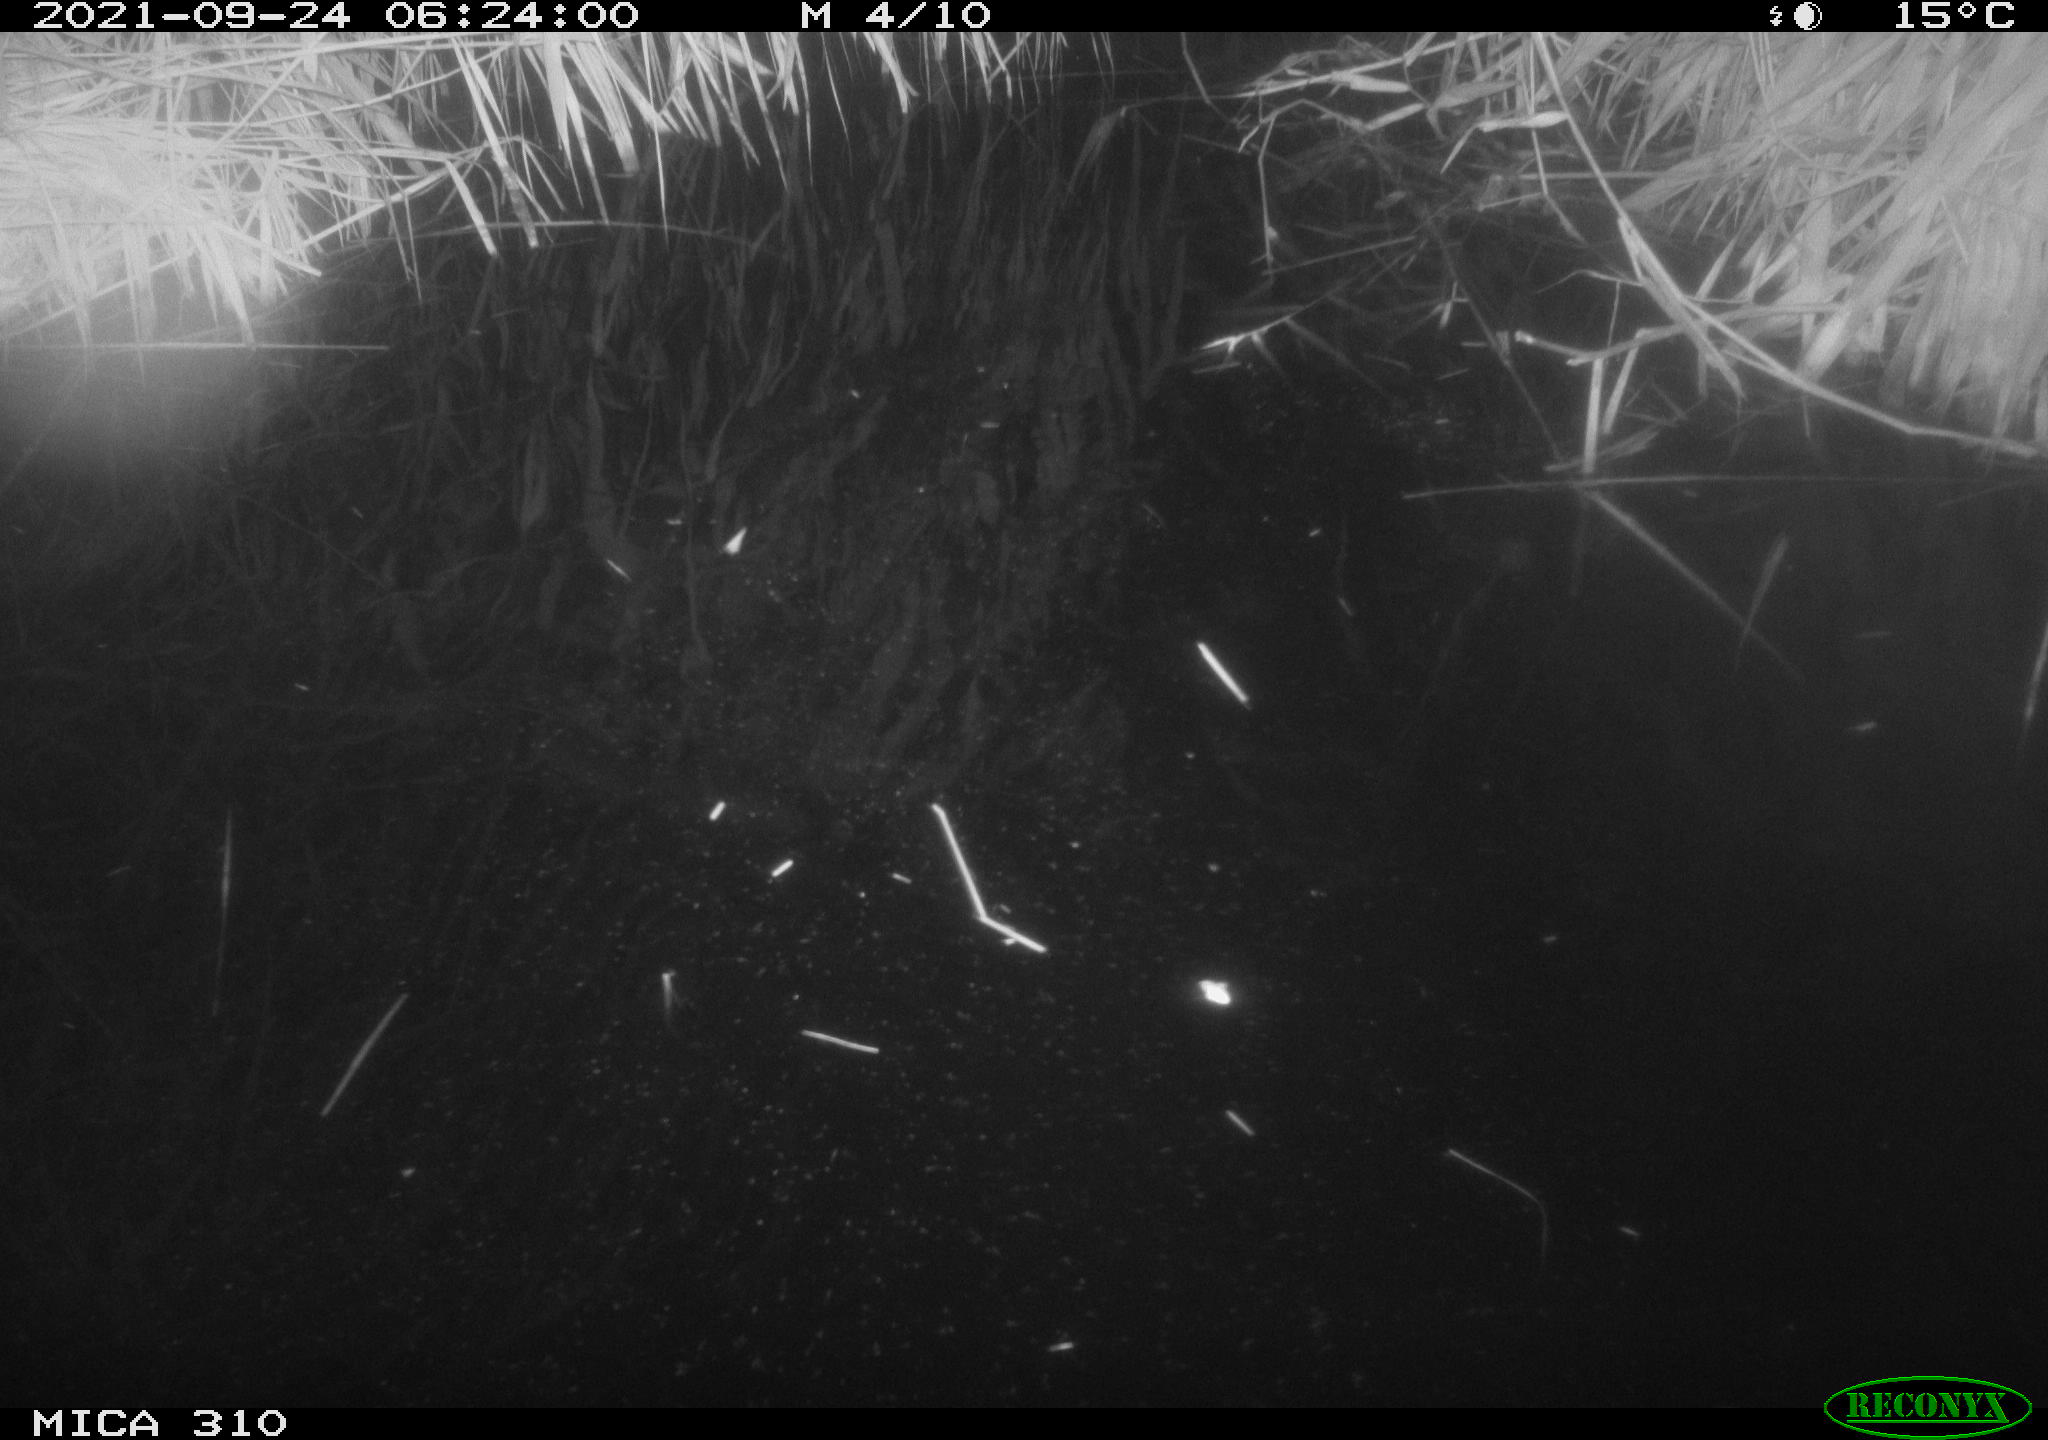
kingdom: Animalia
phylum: Chordata
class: Mammalia
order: Rodentia
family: Muridae
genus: Rattus
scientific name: Rattus norvegicus
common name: Brown rat
